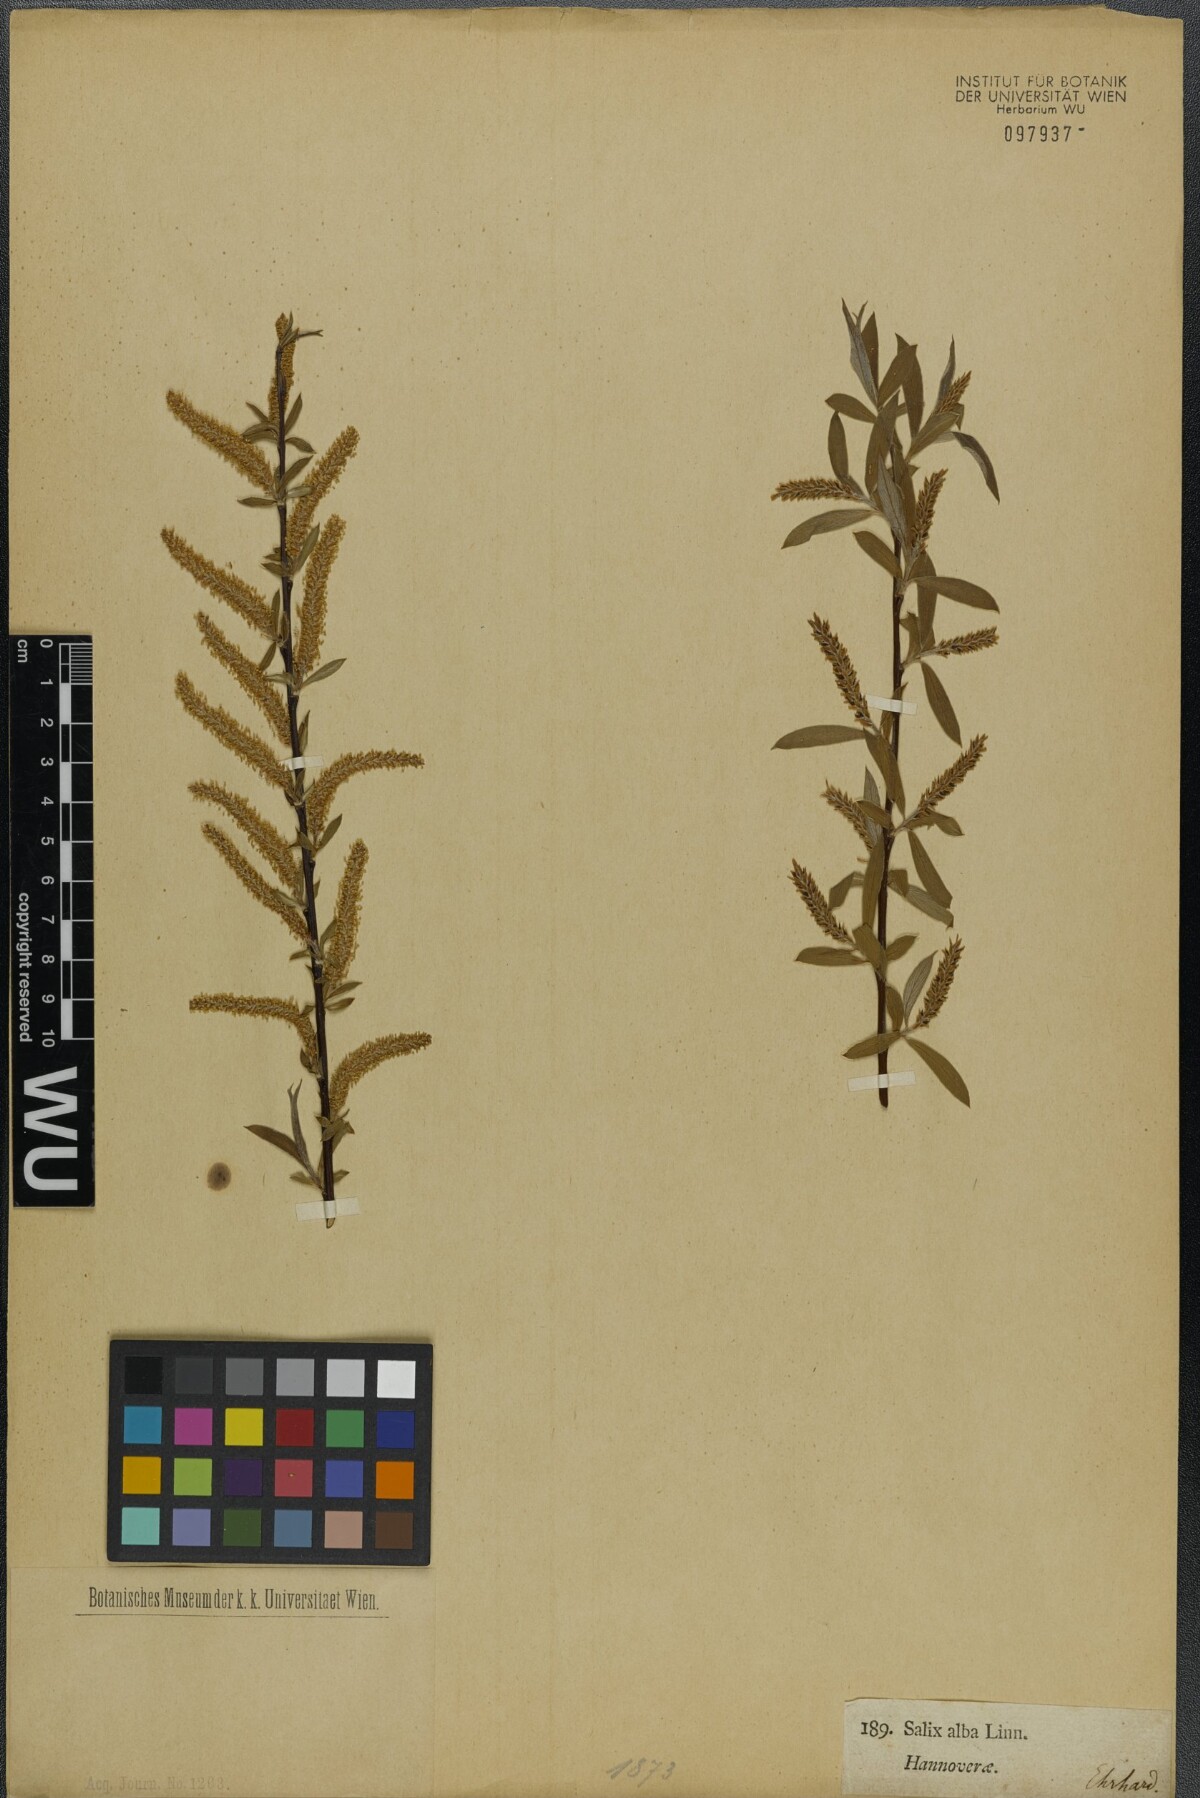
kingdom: Plantae
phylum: Tracheophyta
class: Magnoliopsida
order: Malpighiales
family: Salicaceae
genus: Salix
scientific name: Salix alba
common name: White willow
